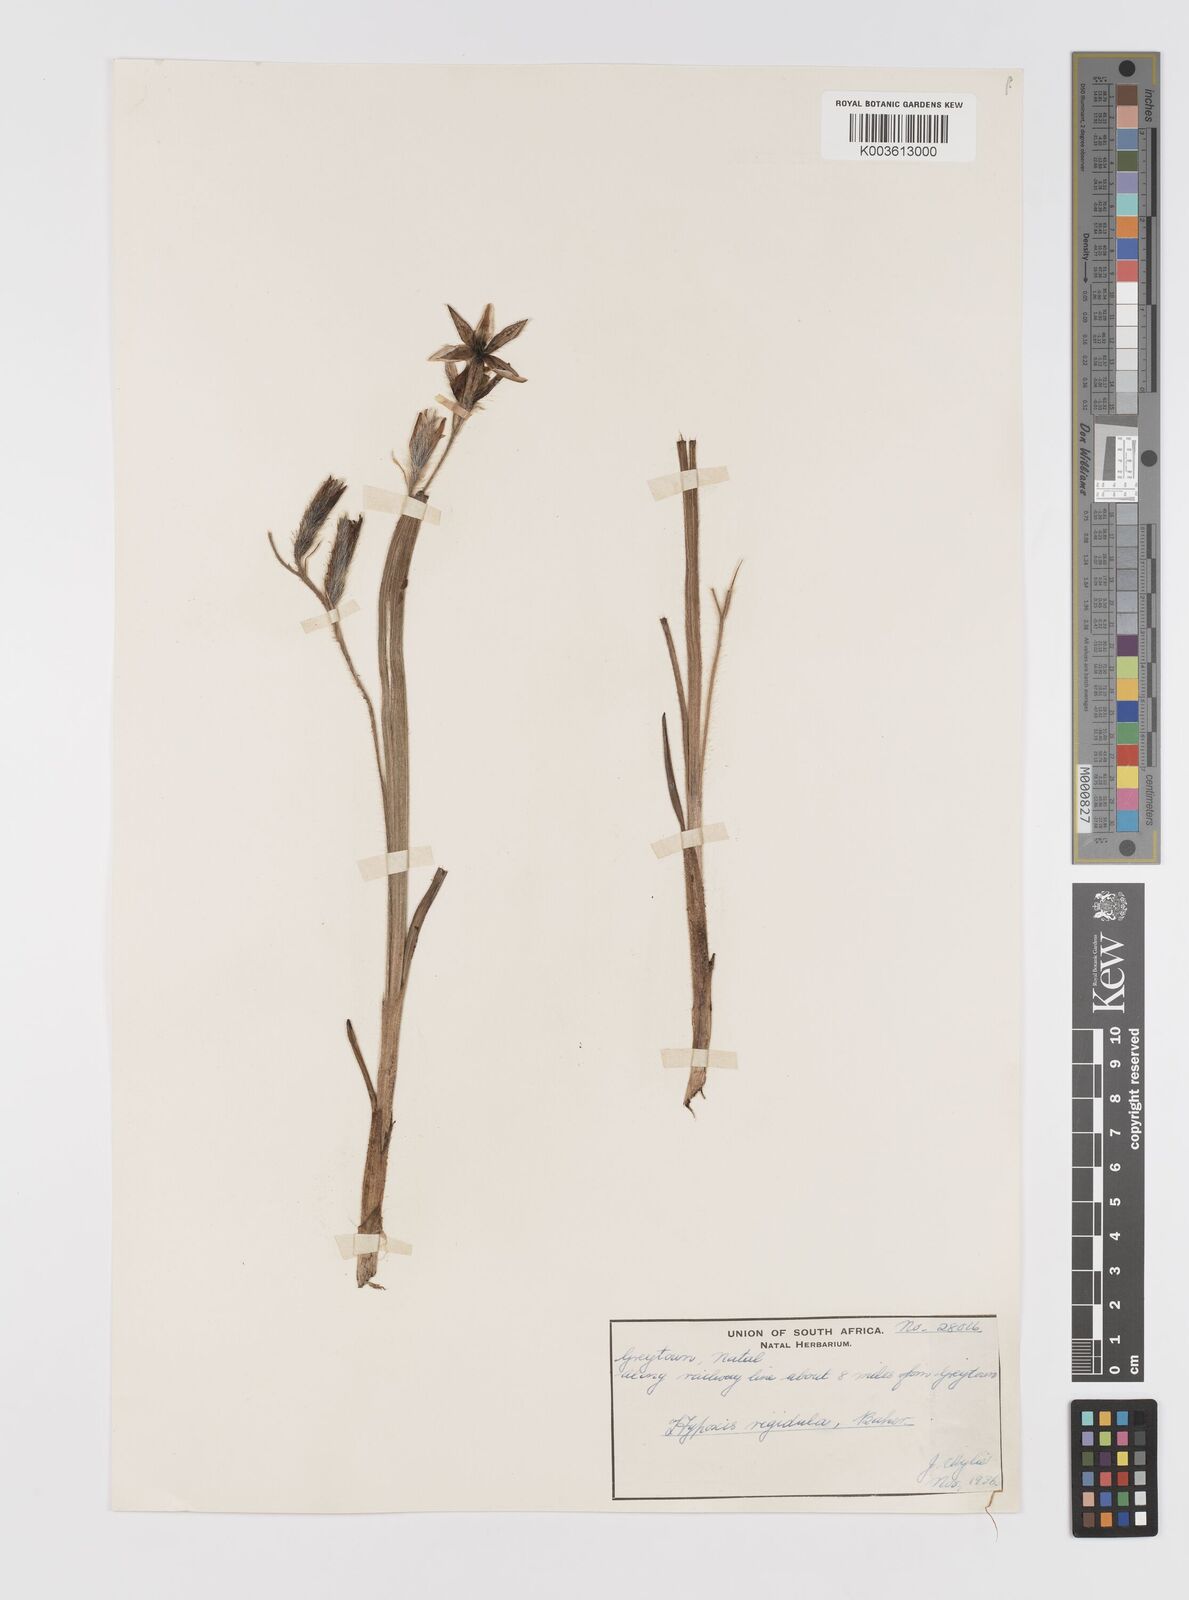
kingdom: Plantae
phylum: Tracheophyta
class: Liliopsida
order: Asparagales
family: Hypoxidaceae
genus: Hypoxis
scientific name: Hypoxis rigidula
